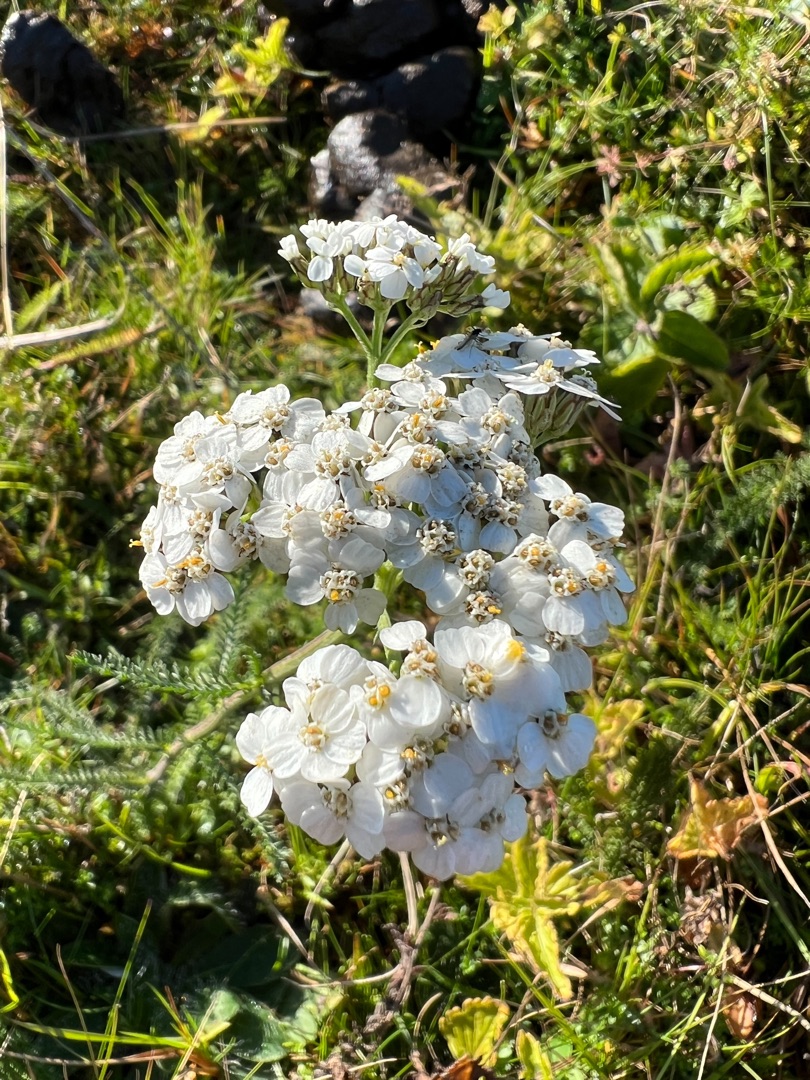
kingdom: Plantae
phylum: Tracheophyta
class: Magnoliopsida
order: Asterales
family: Asteraceae
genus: Achillea
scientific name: Achillea millefolium
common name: Almindelig røllike
